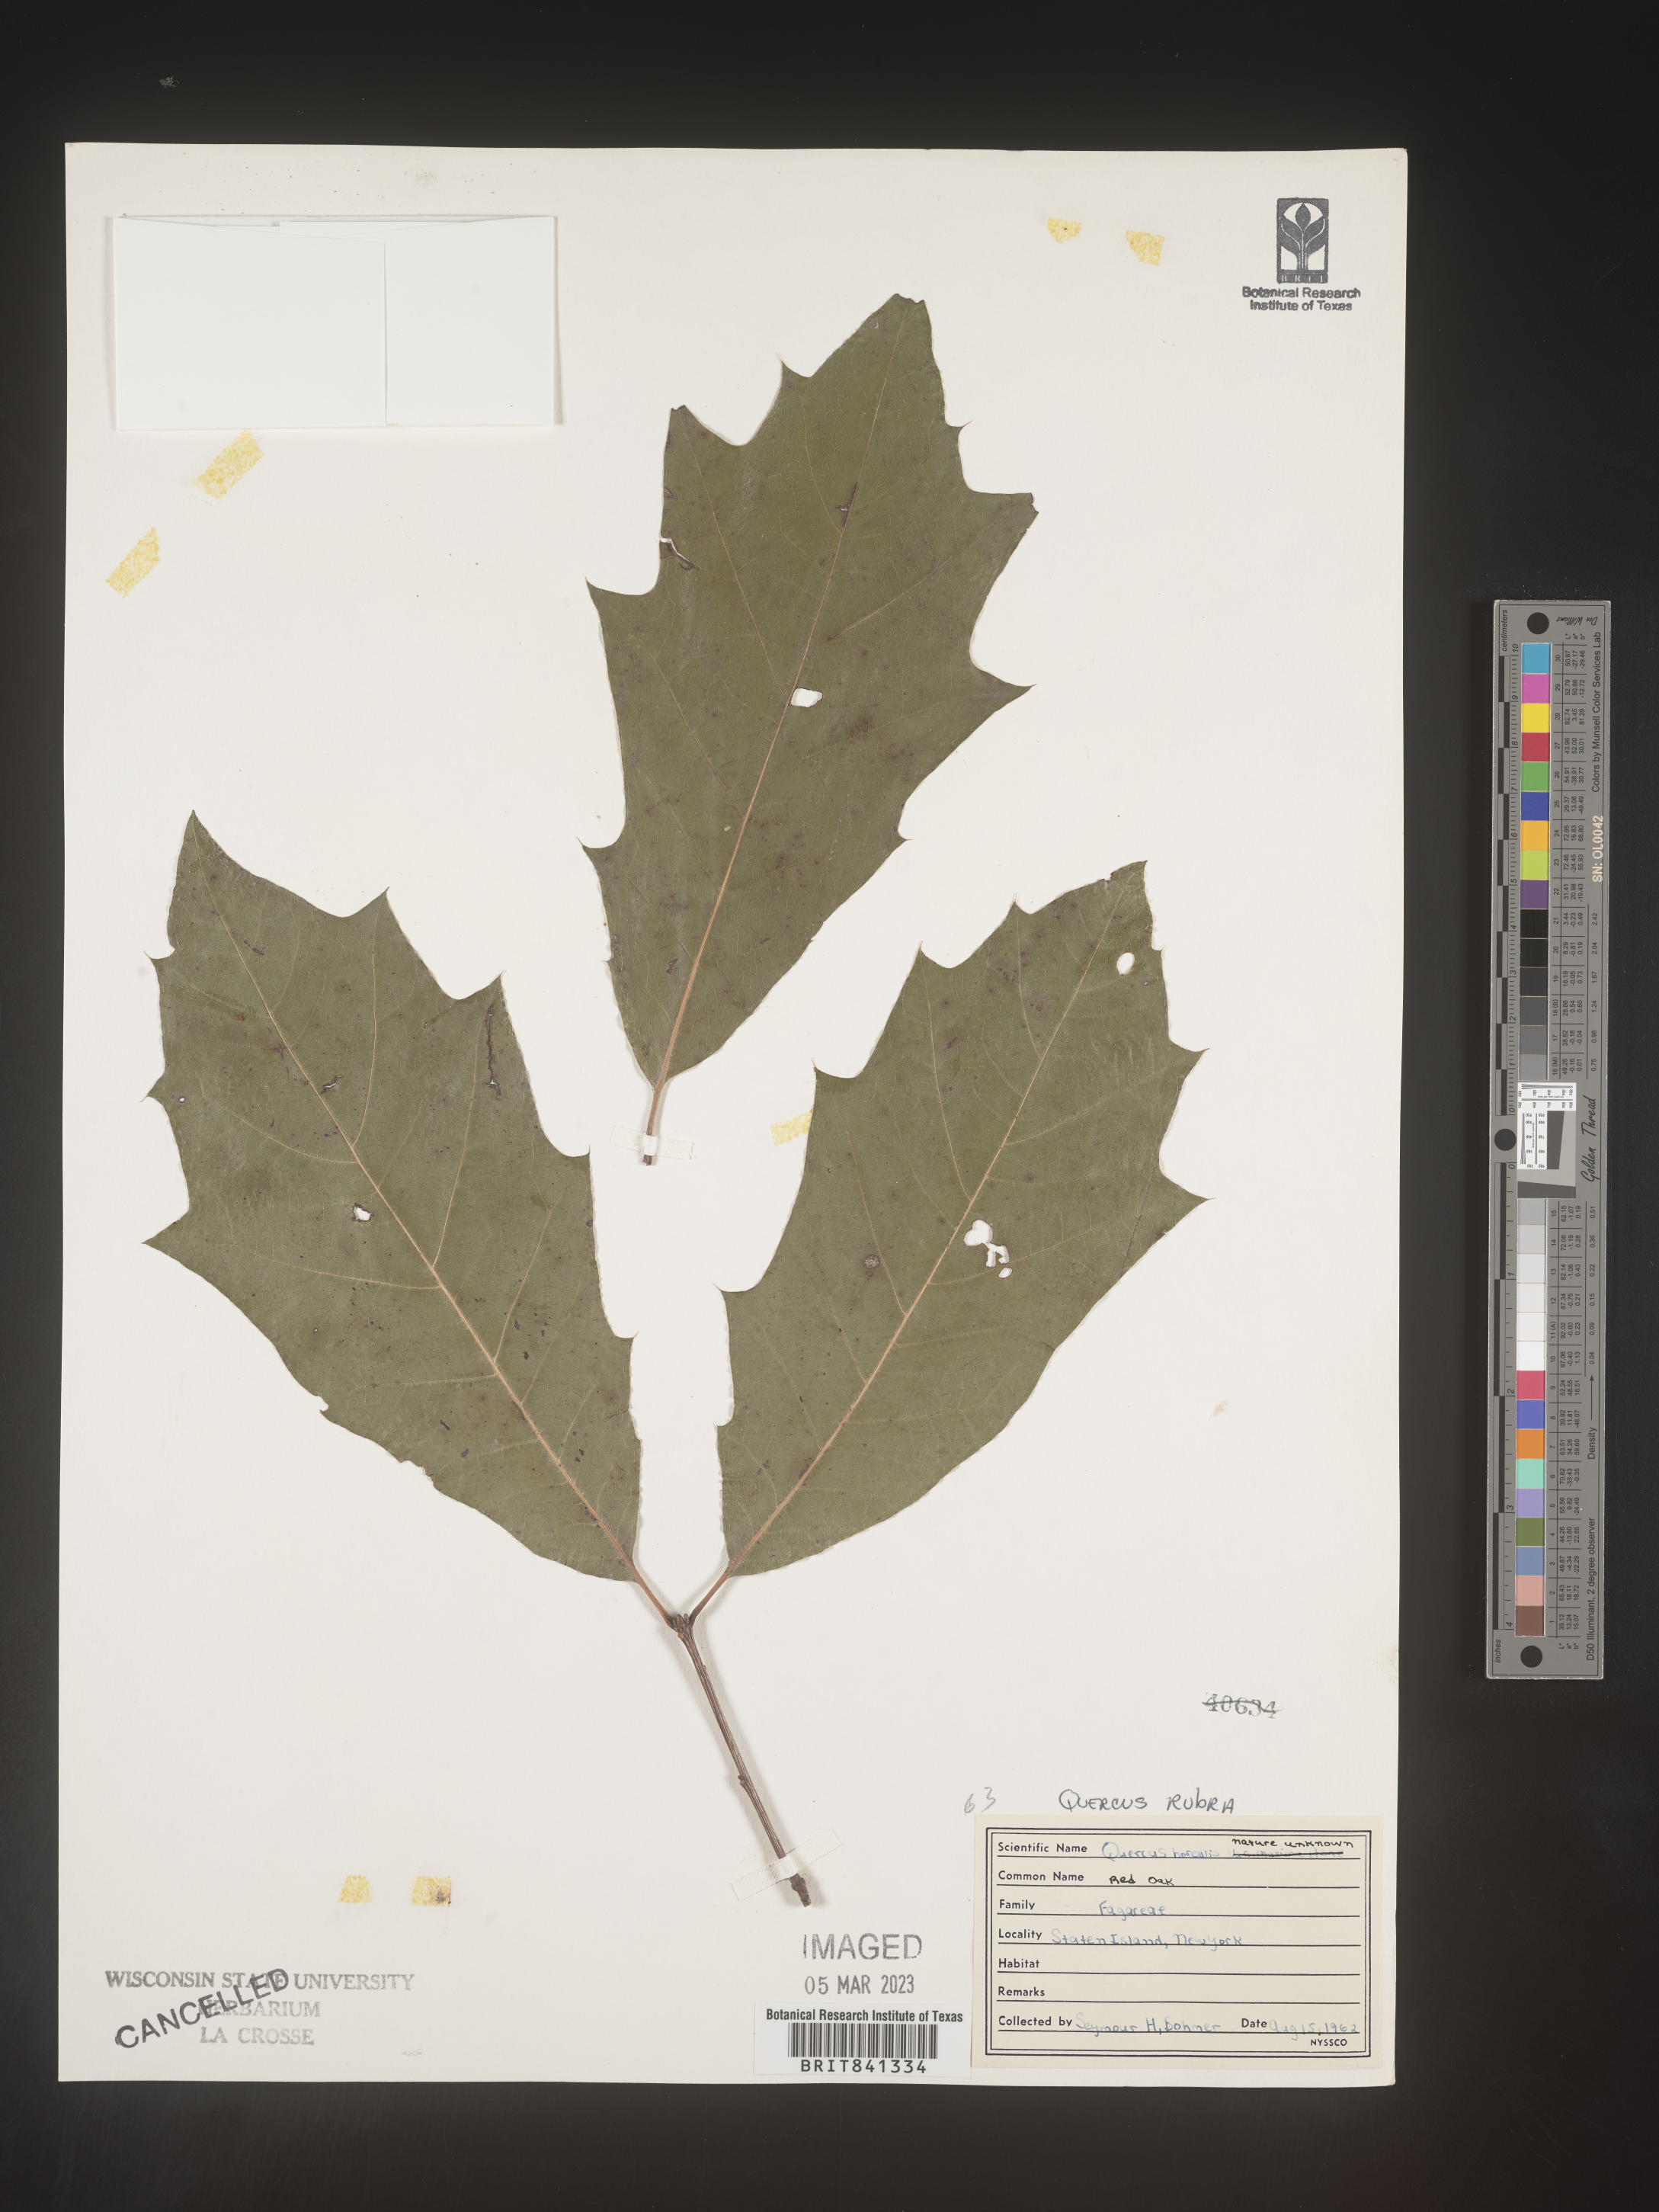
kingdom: Plantae
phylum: Tracheophyta
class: Magnoliopsida
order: Fagales
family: Fagaceae
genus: Quercus
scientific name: Quercus rubra
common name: Red oak
